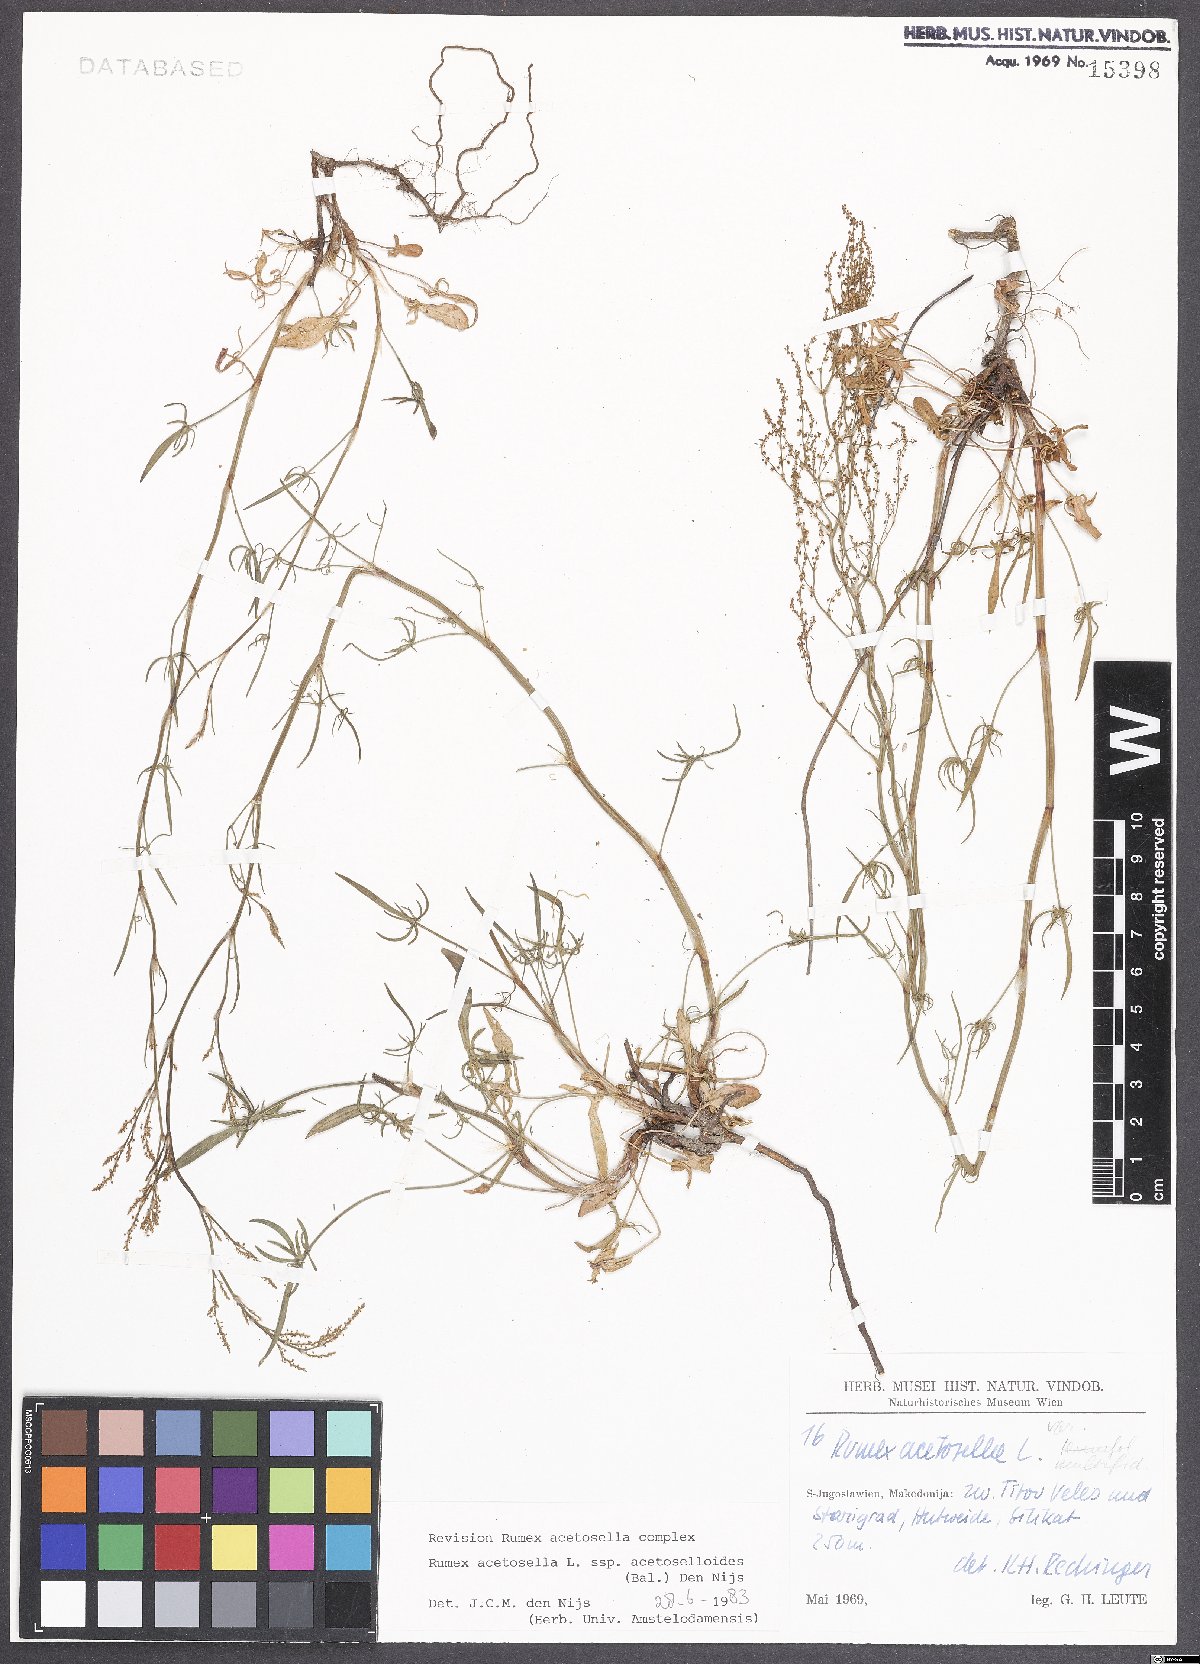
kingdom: Plantae
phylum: Tracheophyta
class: Magnoliopsida
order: Caryophyllales
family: Polygonaceae
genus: Rumex
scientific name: Rumex acetosella
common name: Common sheep sorrel
